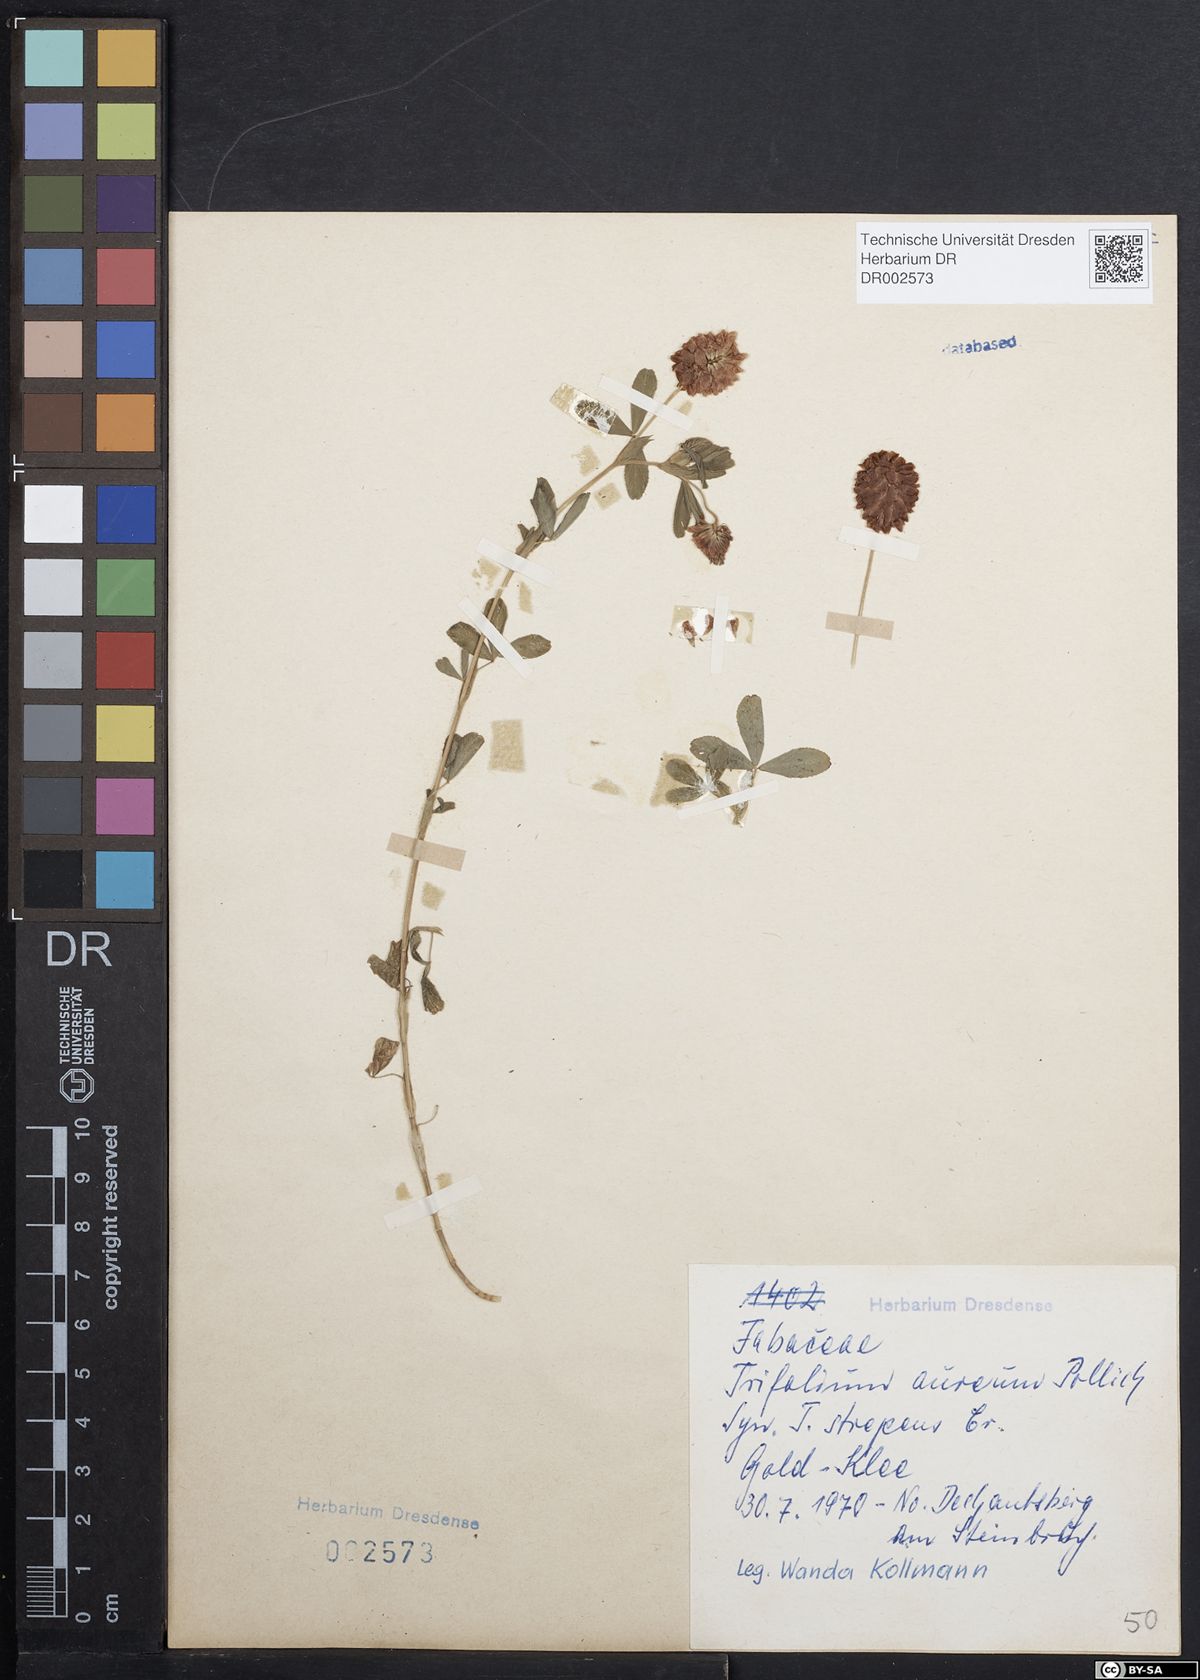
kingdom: Plantae
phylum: Tracheophyta
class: Magnoliopsida
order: Fabales
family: Fabaceae
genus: Trifolium
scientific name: Trifolium aureum
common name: Golden clover
